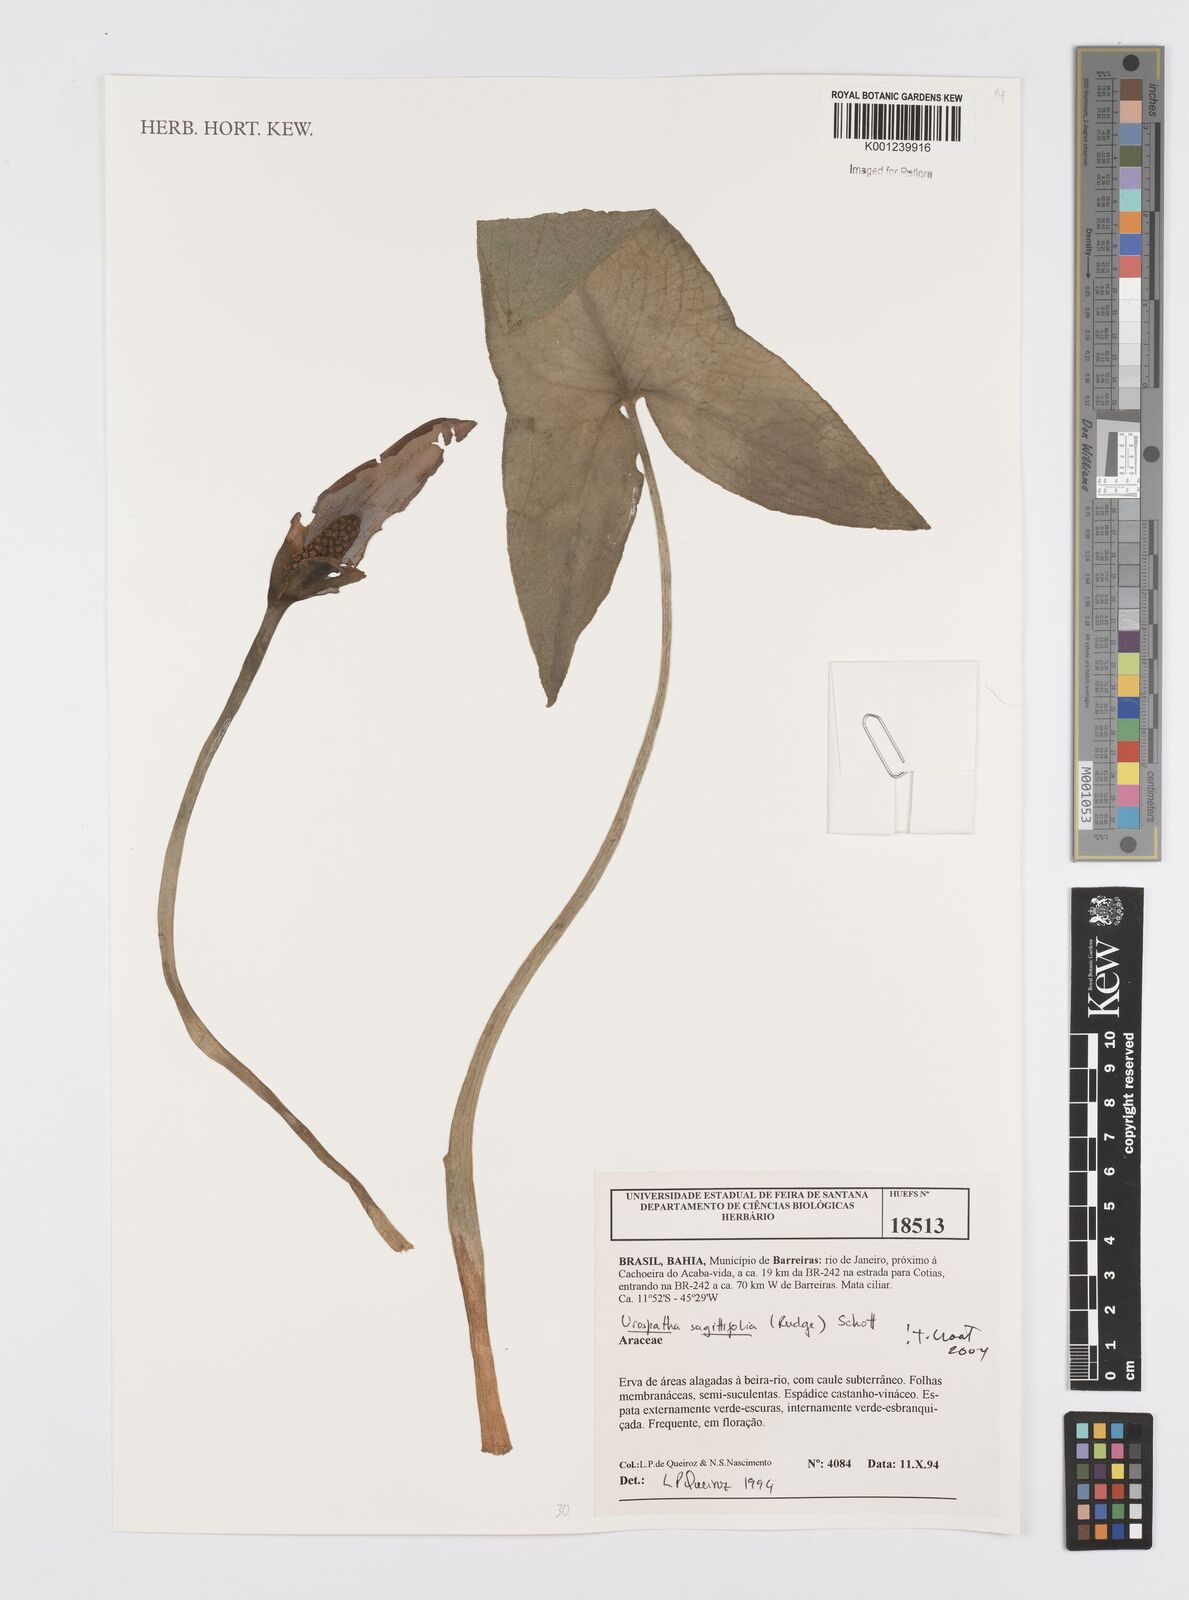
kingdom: Plantae
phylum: Tracheophyta
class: Liliopsida
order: Alismatales
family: Araceae
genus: Urospatha
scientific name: Urospatha sagittifolia
